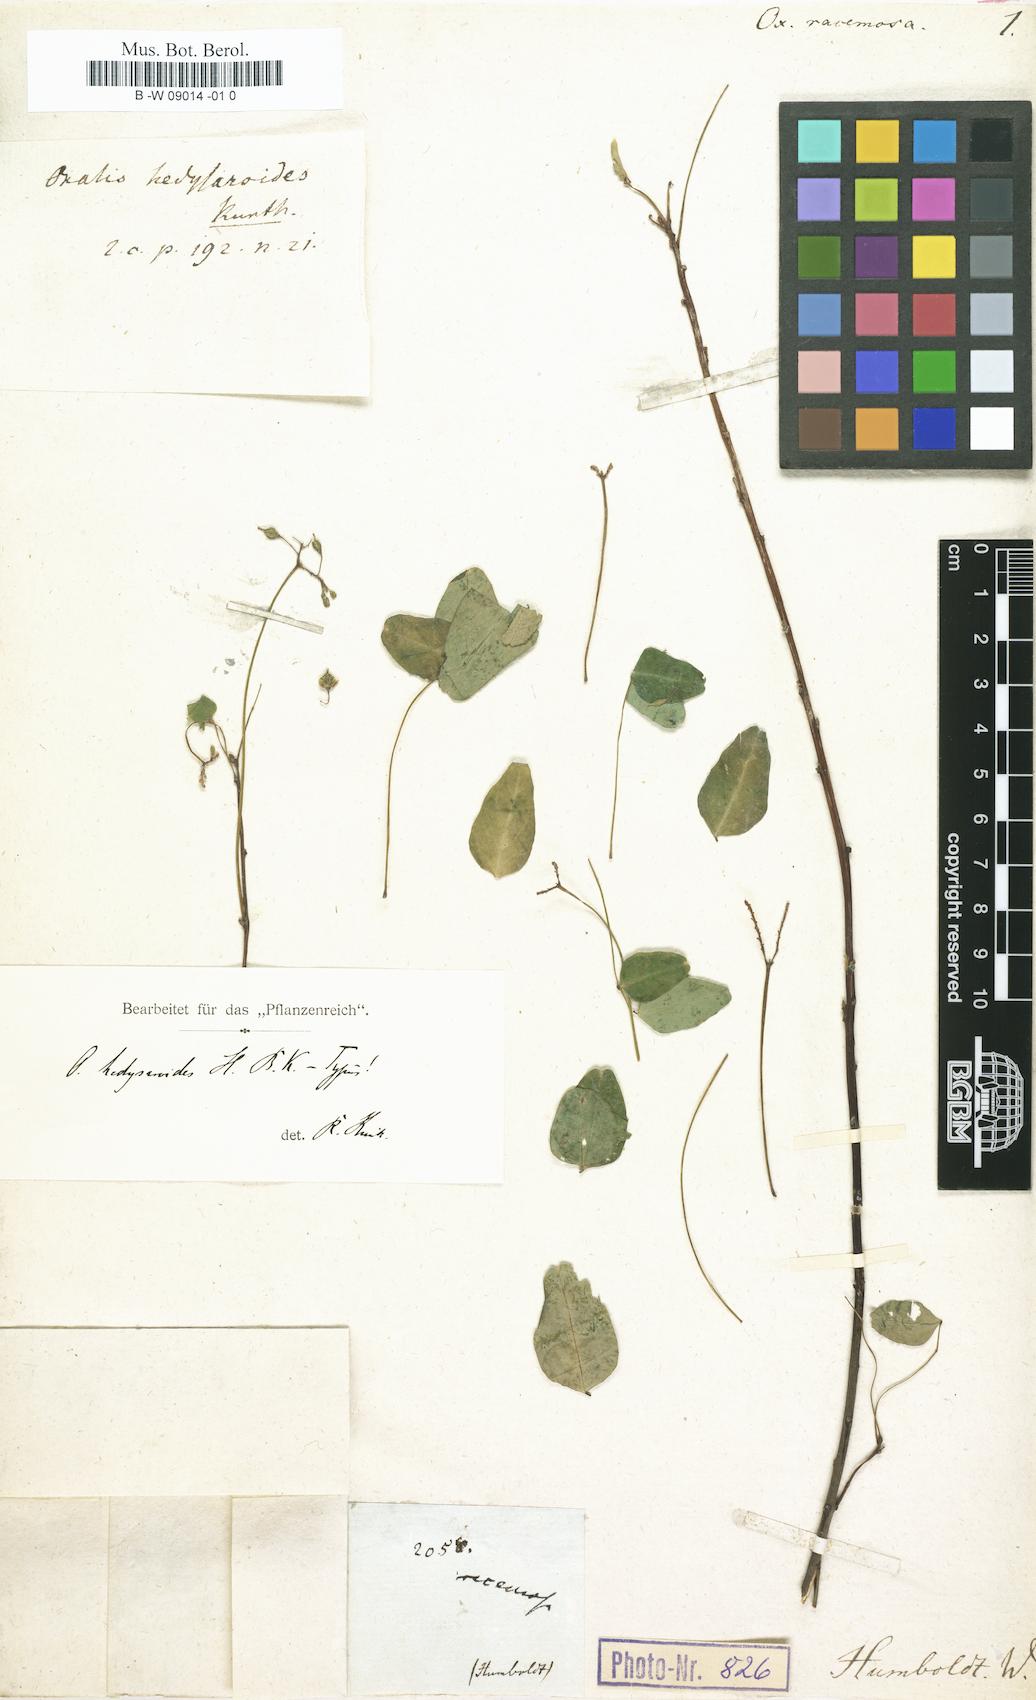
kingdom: Plantae
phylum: Tracheophyta
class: Magnoliopsida
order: Oxalidales
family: Oxalidaceae
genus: Oxalis
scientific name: Oxalis articulata
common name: Pink-sorrel
